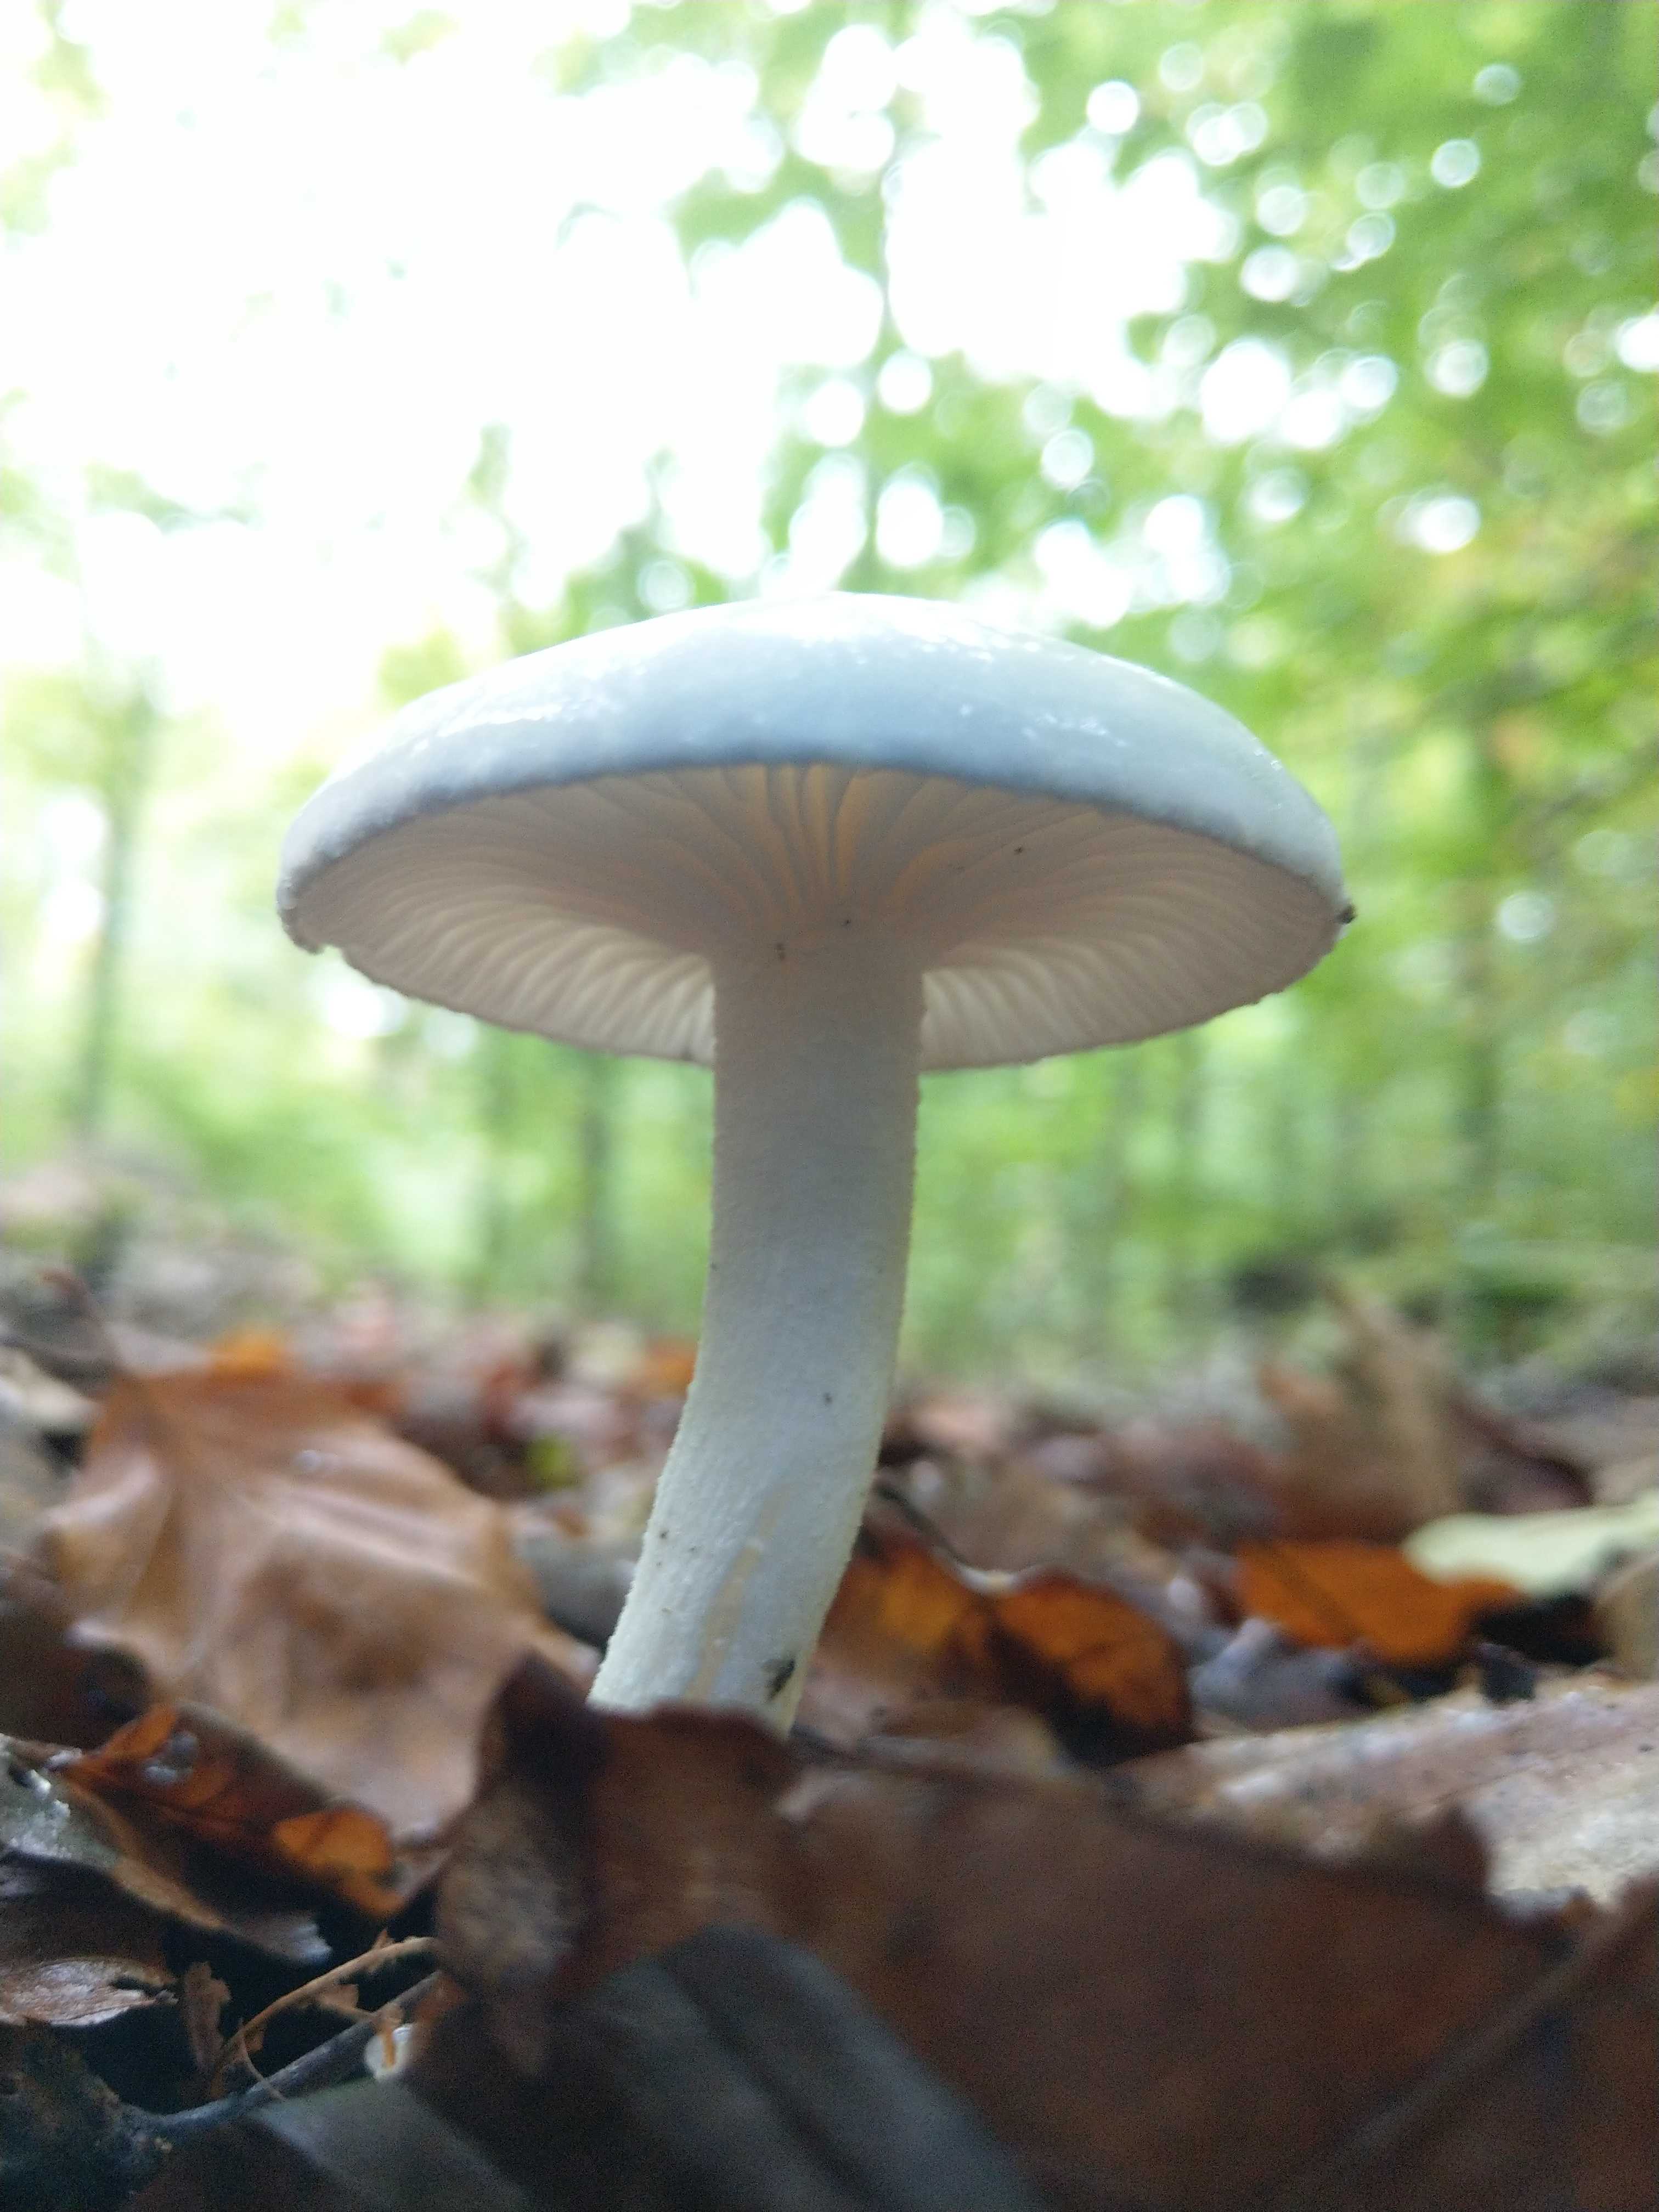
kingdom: Fungi
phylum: Basidiomycota
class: Agaricomycetes
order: Agaricales
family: Hygrophoraceae
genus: Hygrophorus
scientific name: Hygrophorus eburneus
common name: elfenbens-sneglehat
